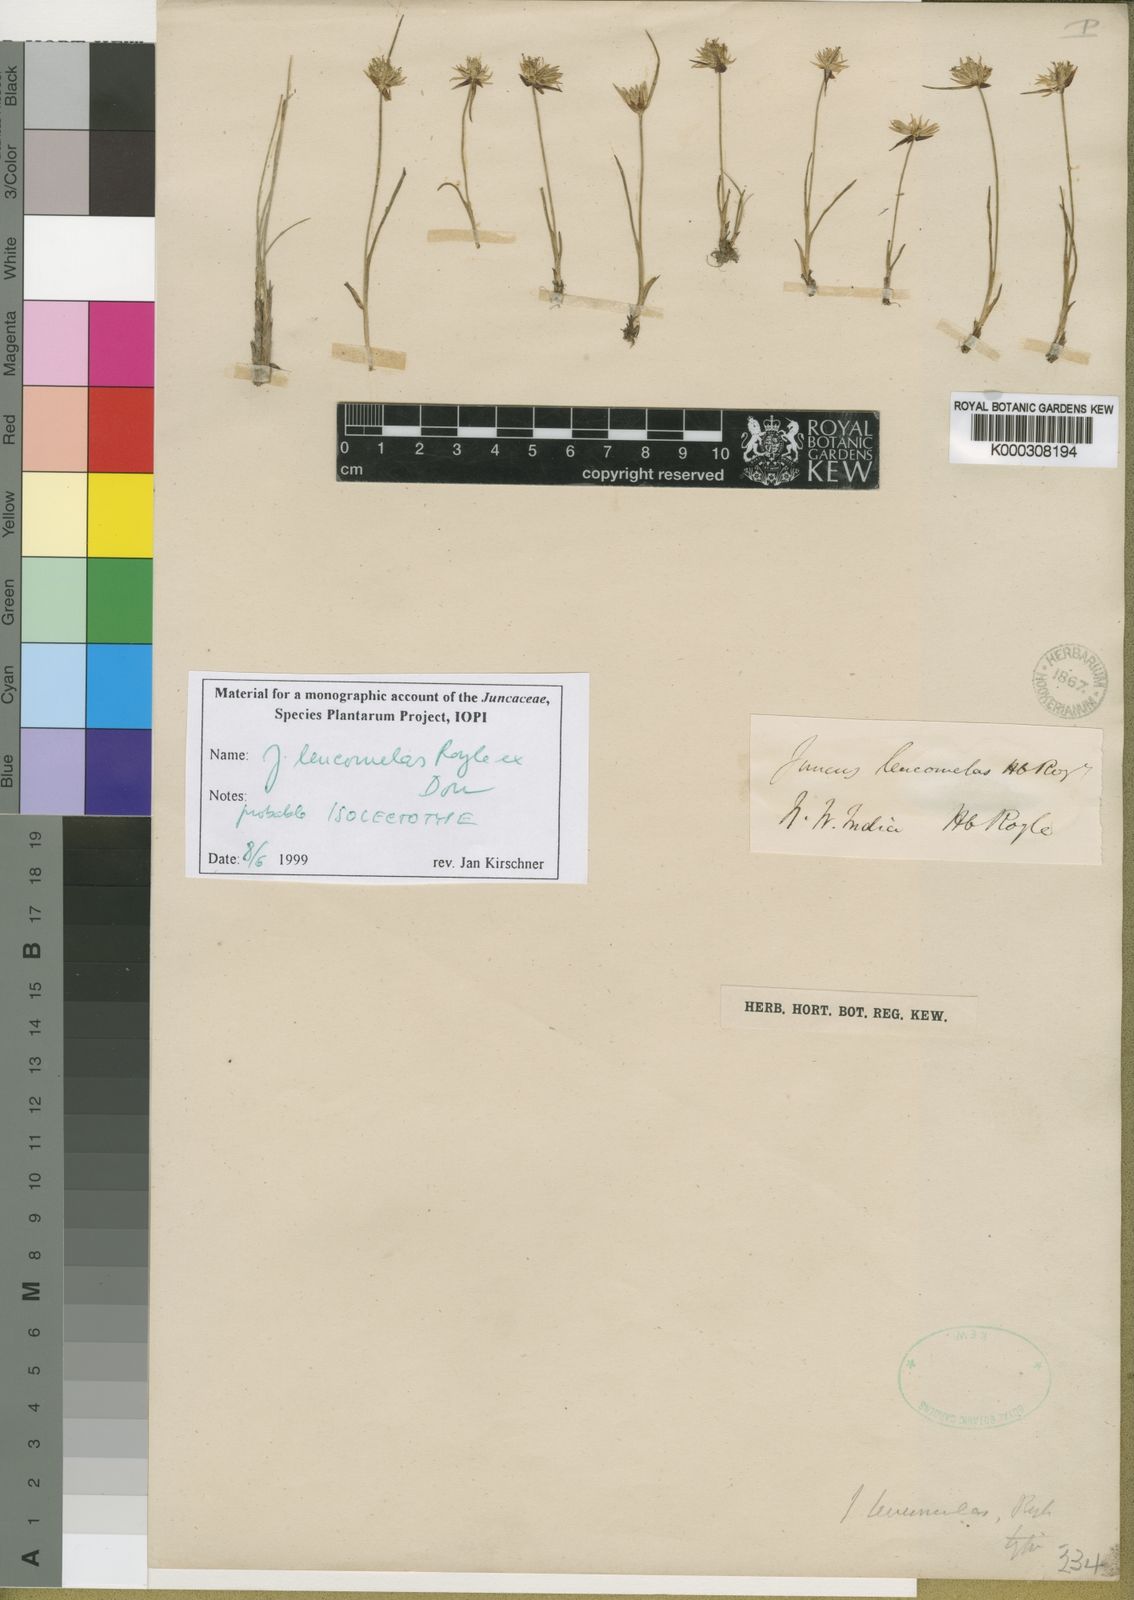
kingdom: Plantae
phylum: Tracheophyta
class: Liliopsida
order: Poales
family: Juncaceae
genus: Juncus
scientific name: Juncus leucomelas
